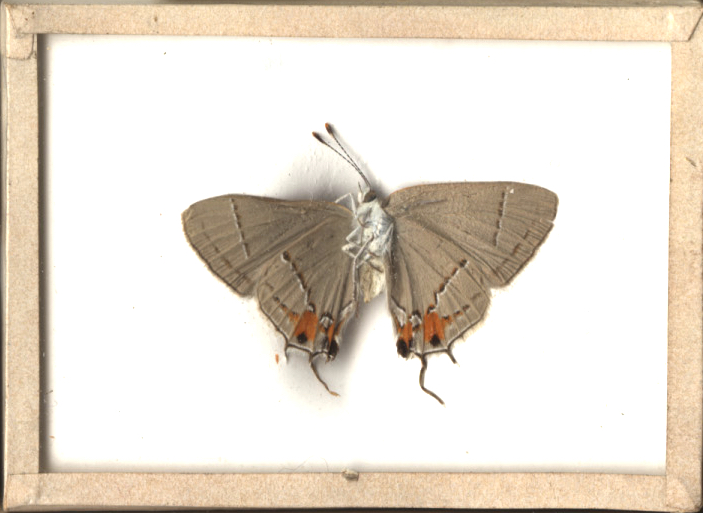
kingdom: Animalia
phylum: Arthropoda
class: Insecta
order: Lepidoptera
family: Lycaenidae
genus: Strymon
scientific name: Strymon melinus
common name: Gray Hairstreak
